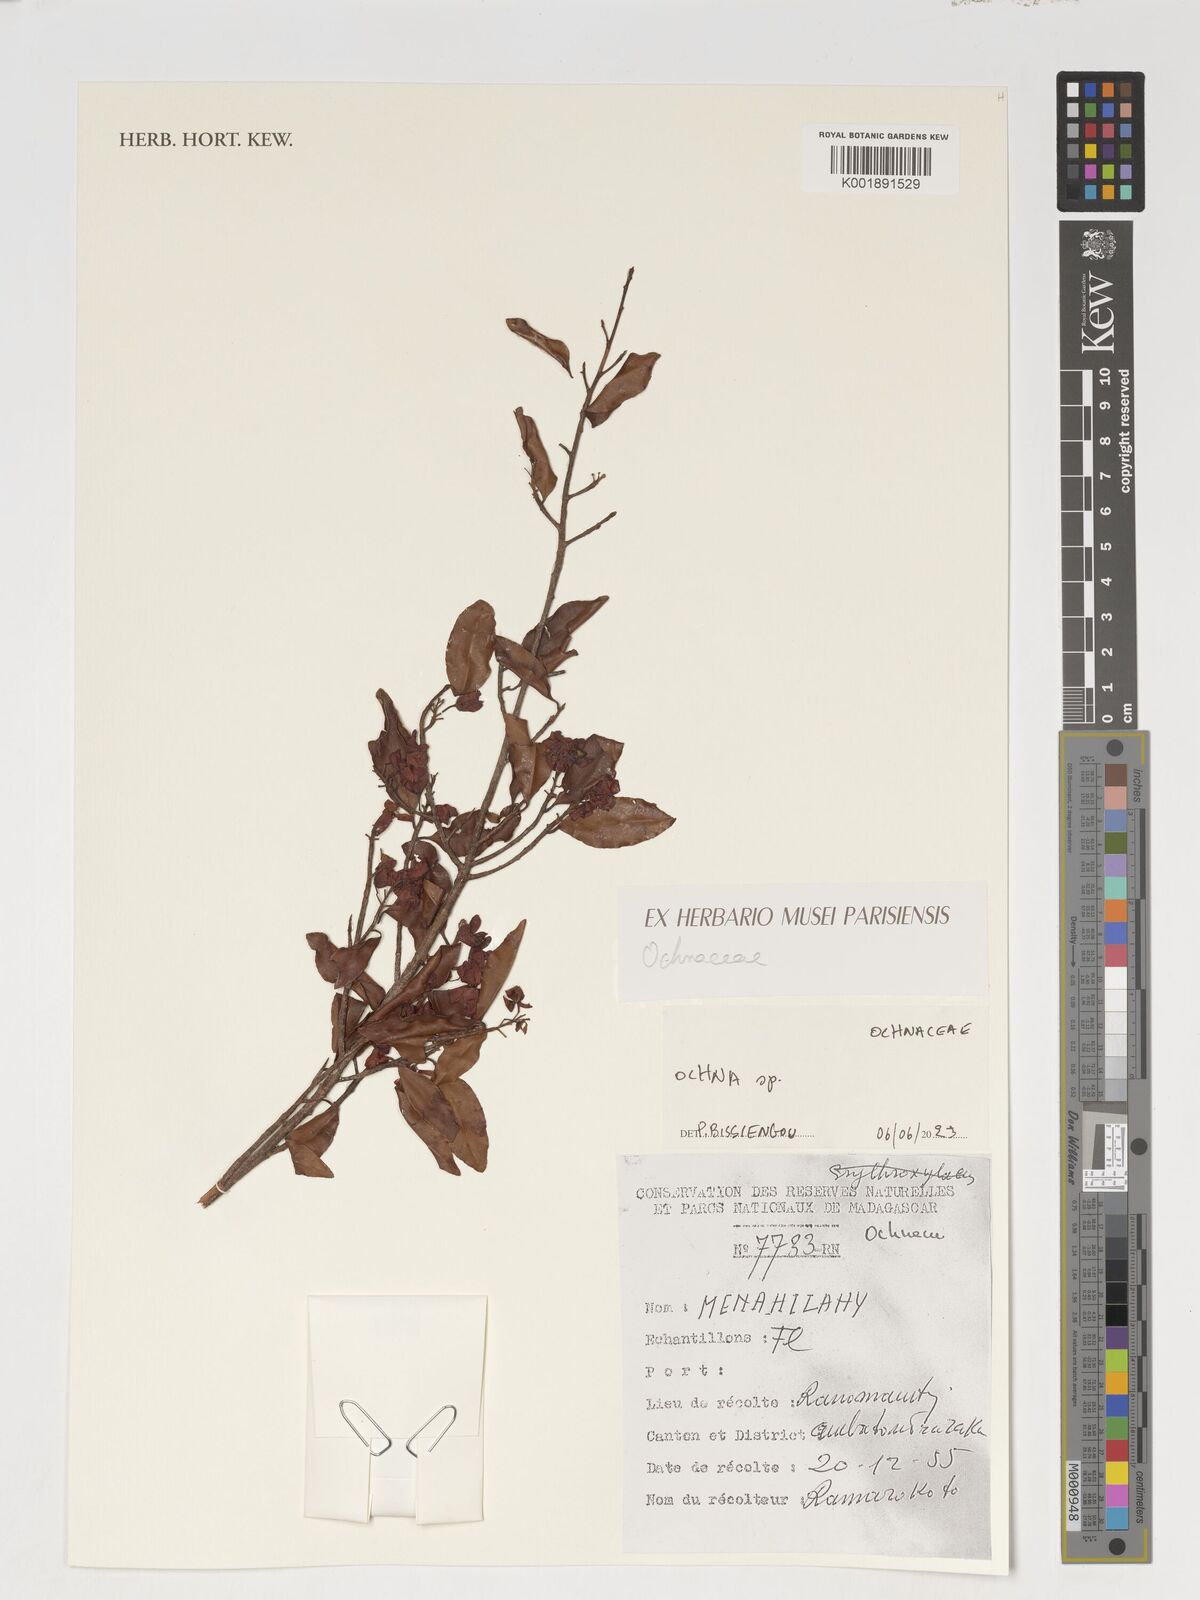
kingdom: Plantae
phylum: Tracheophyta
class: Magnoliopsida
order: Malpighiales
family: Ochnaceae
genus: Ochna
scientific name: Ochna
